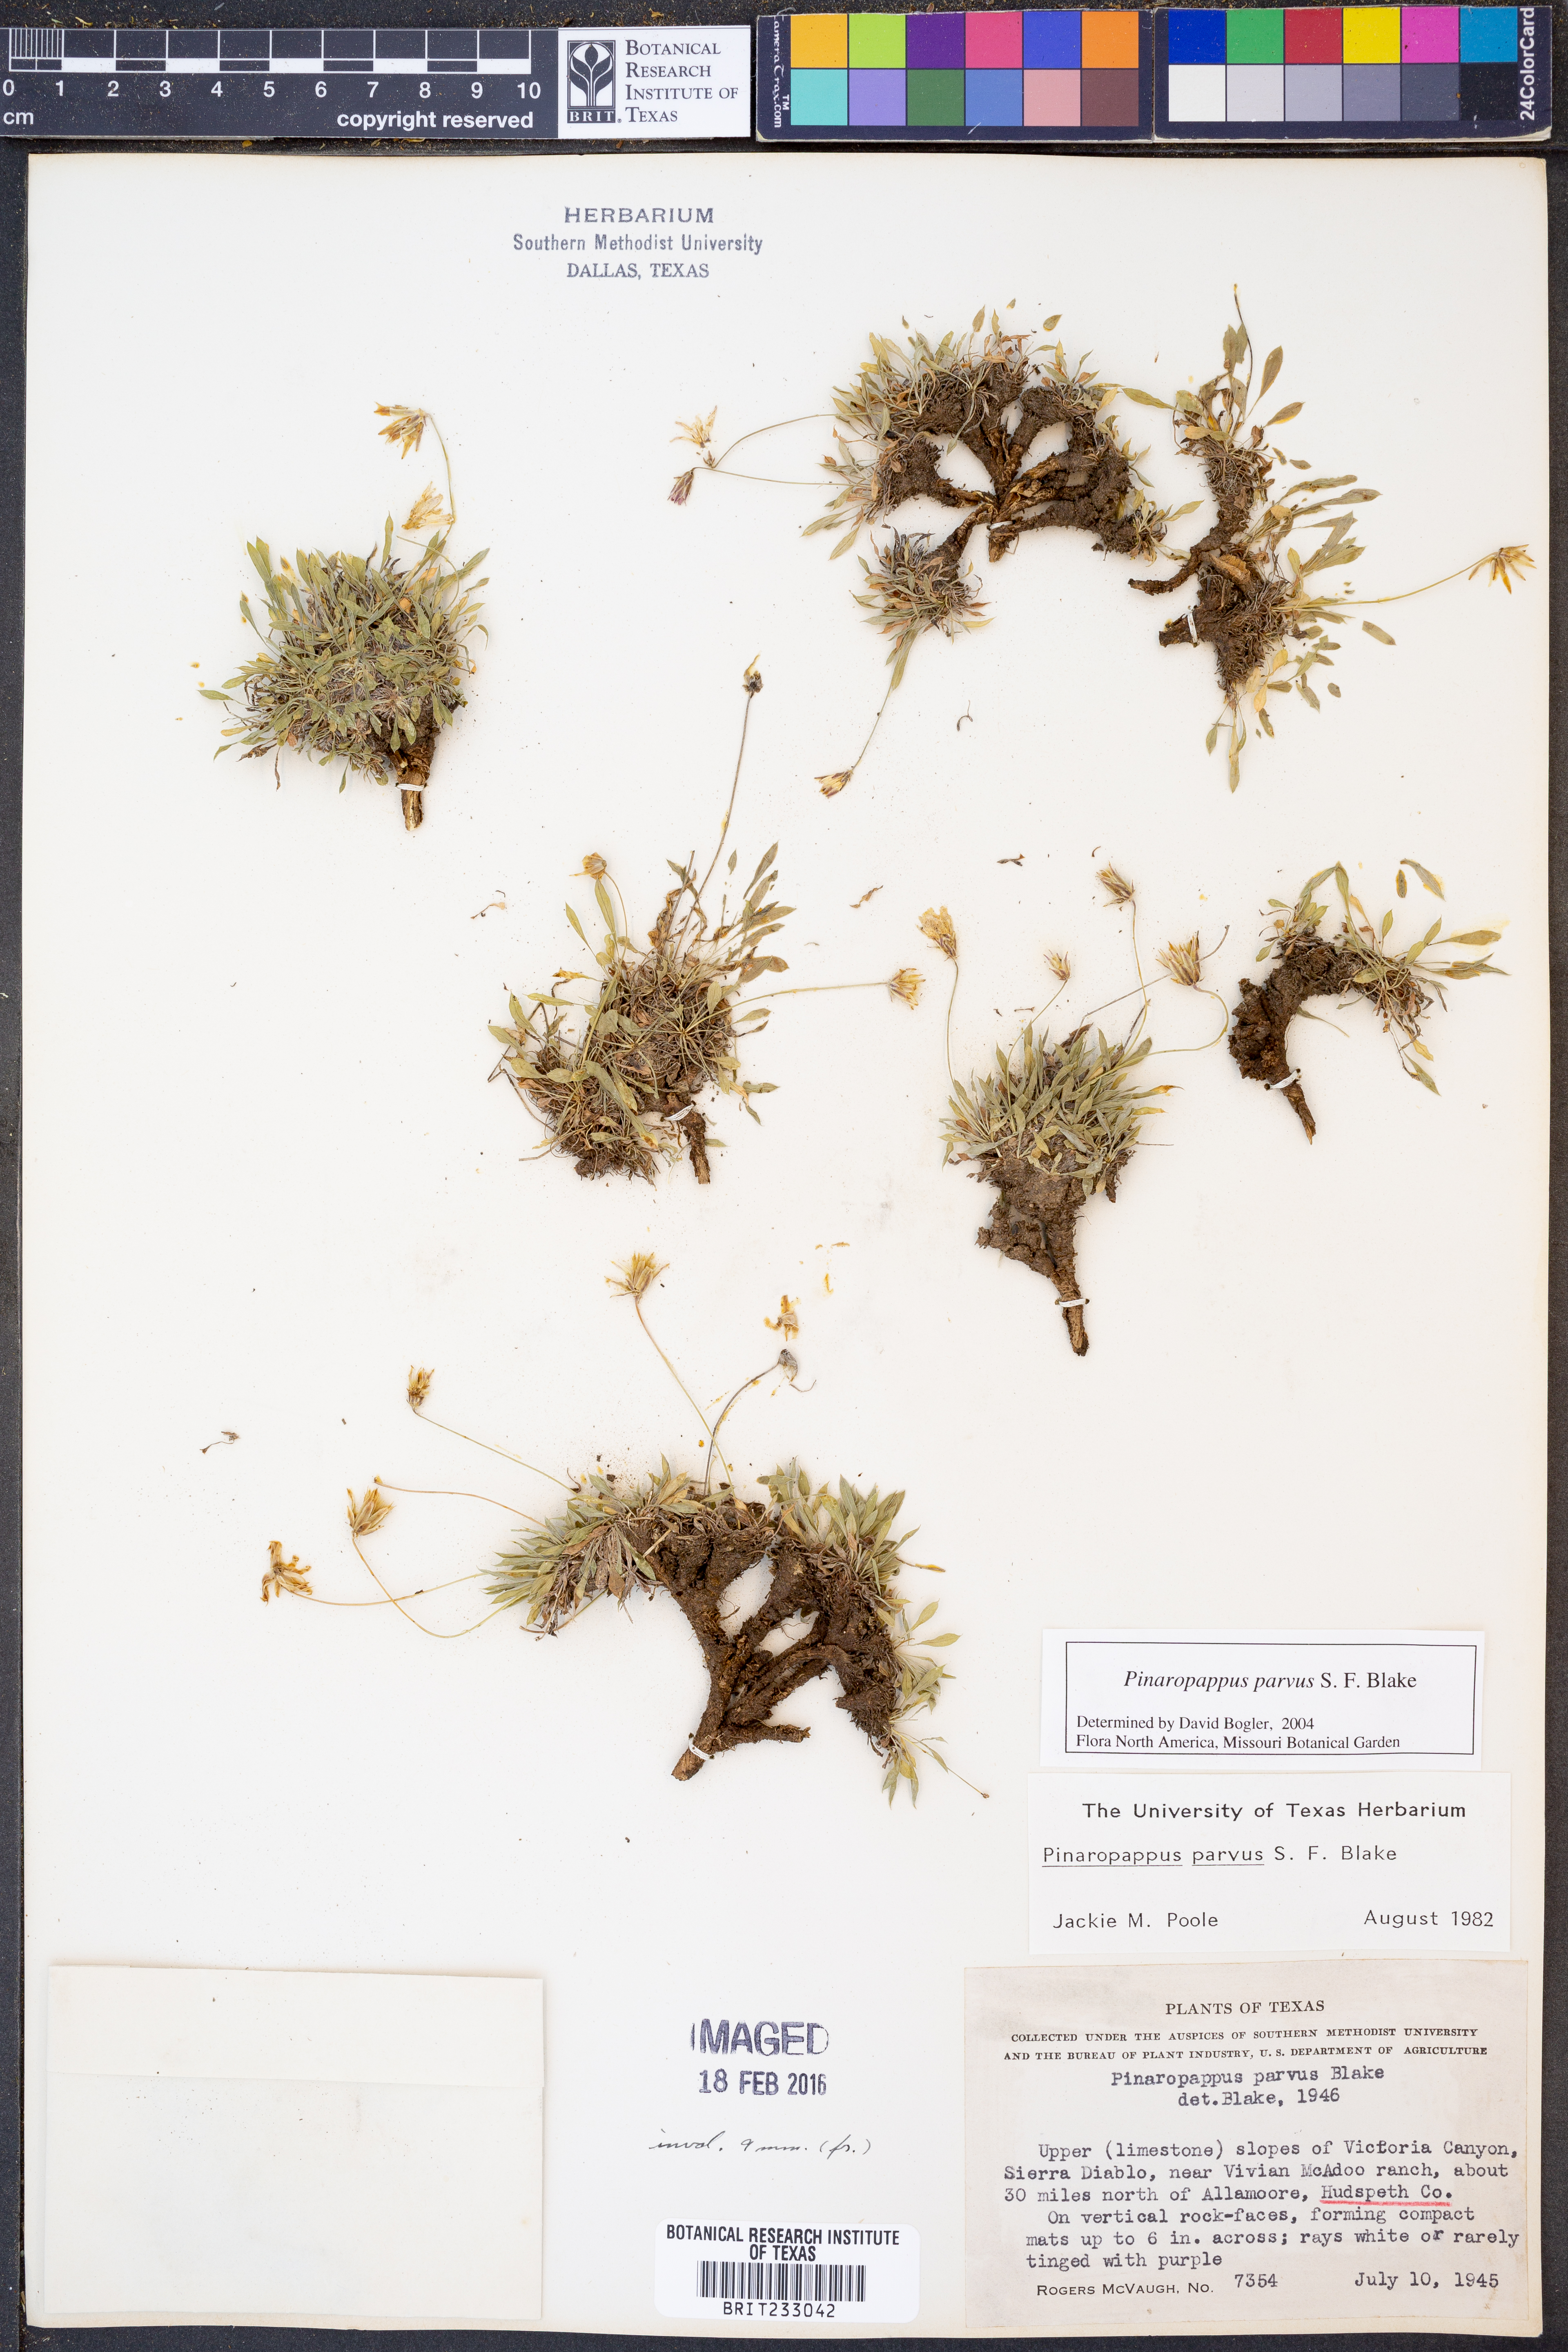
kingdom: Plantae
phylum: Tracheophyta
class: Magnoliopsida
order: Asterales
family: Asteraceae
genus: Pinaropappus
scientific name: Pinaropappus parvus
